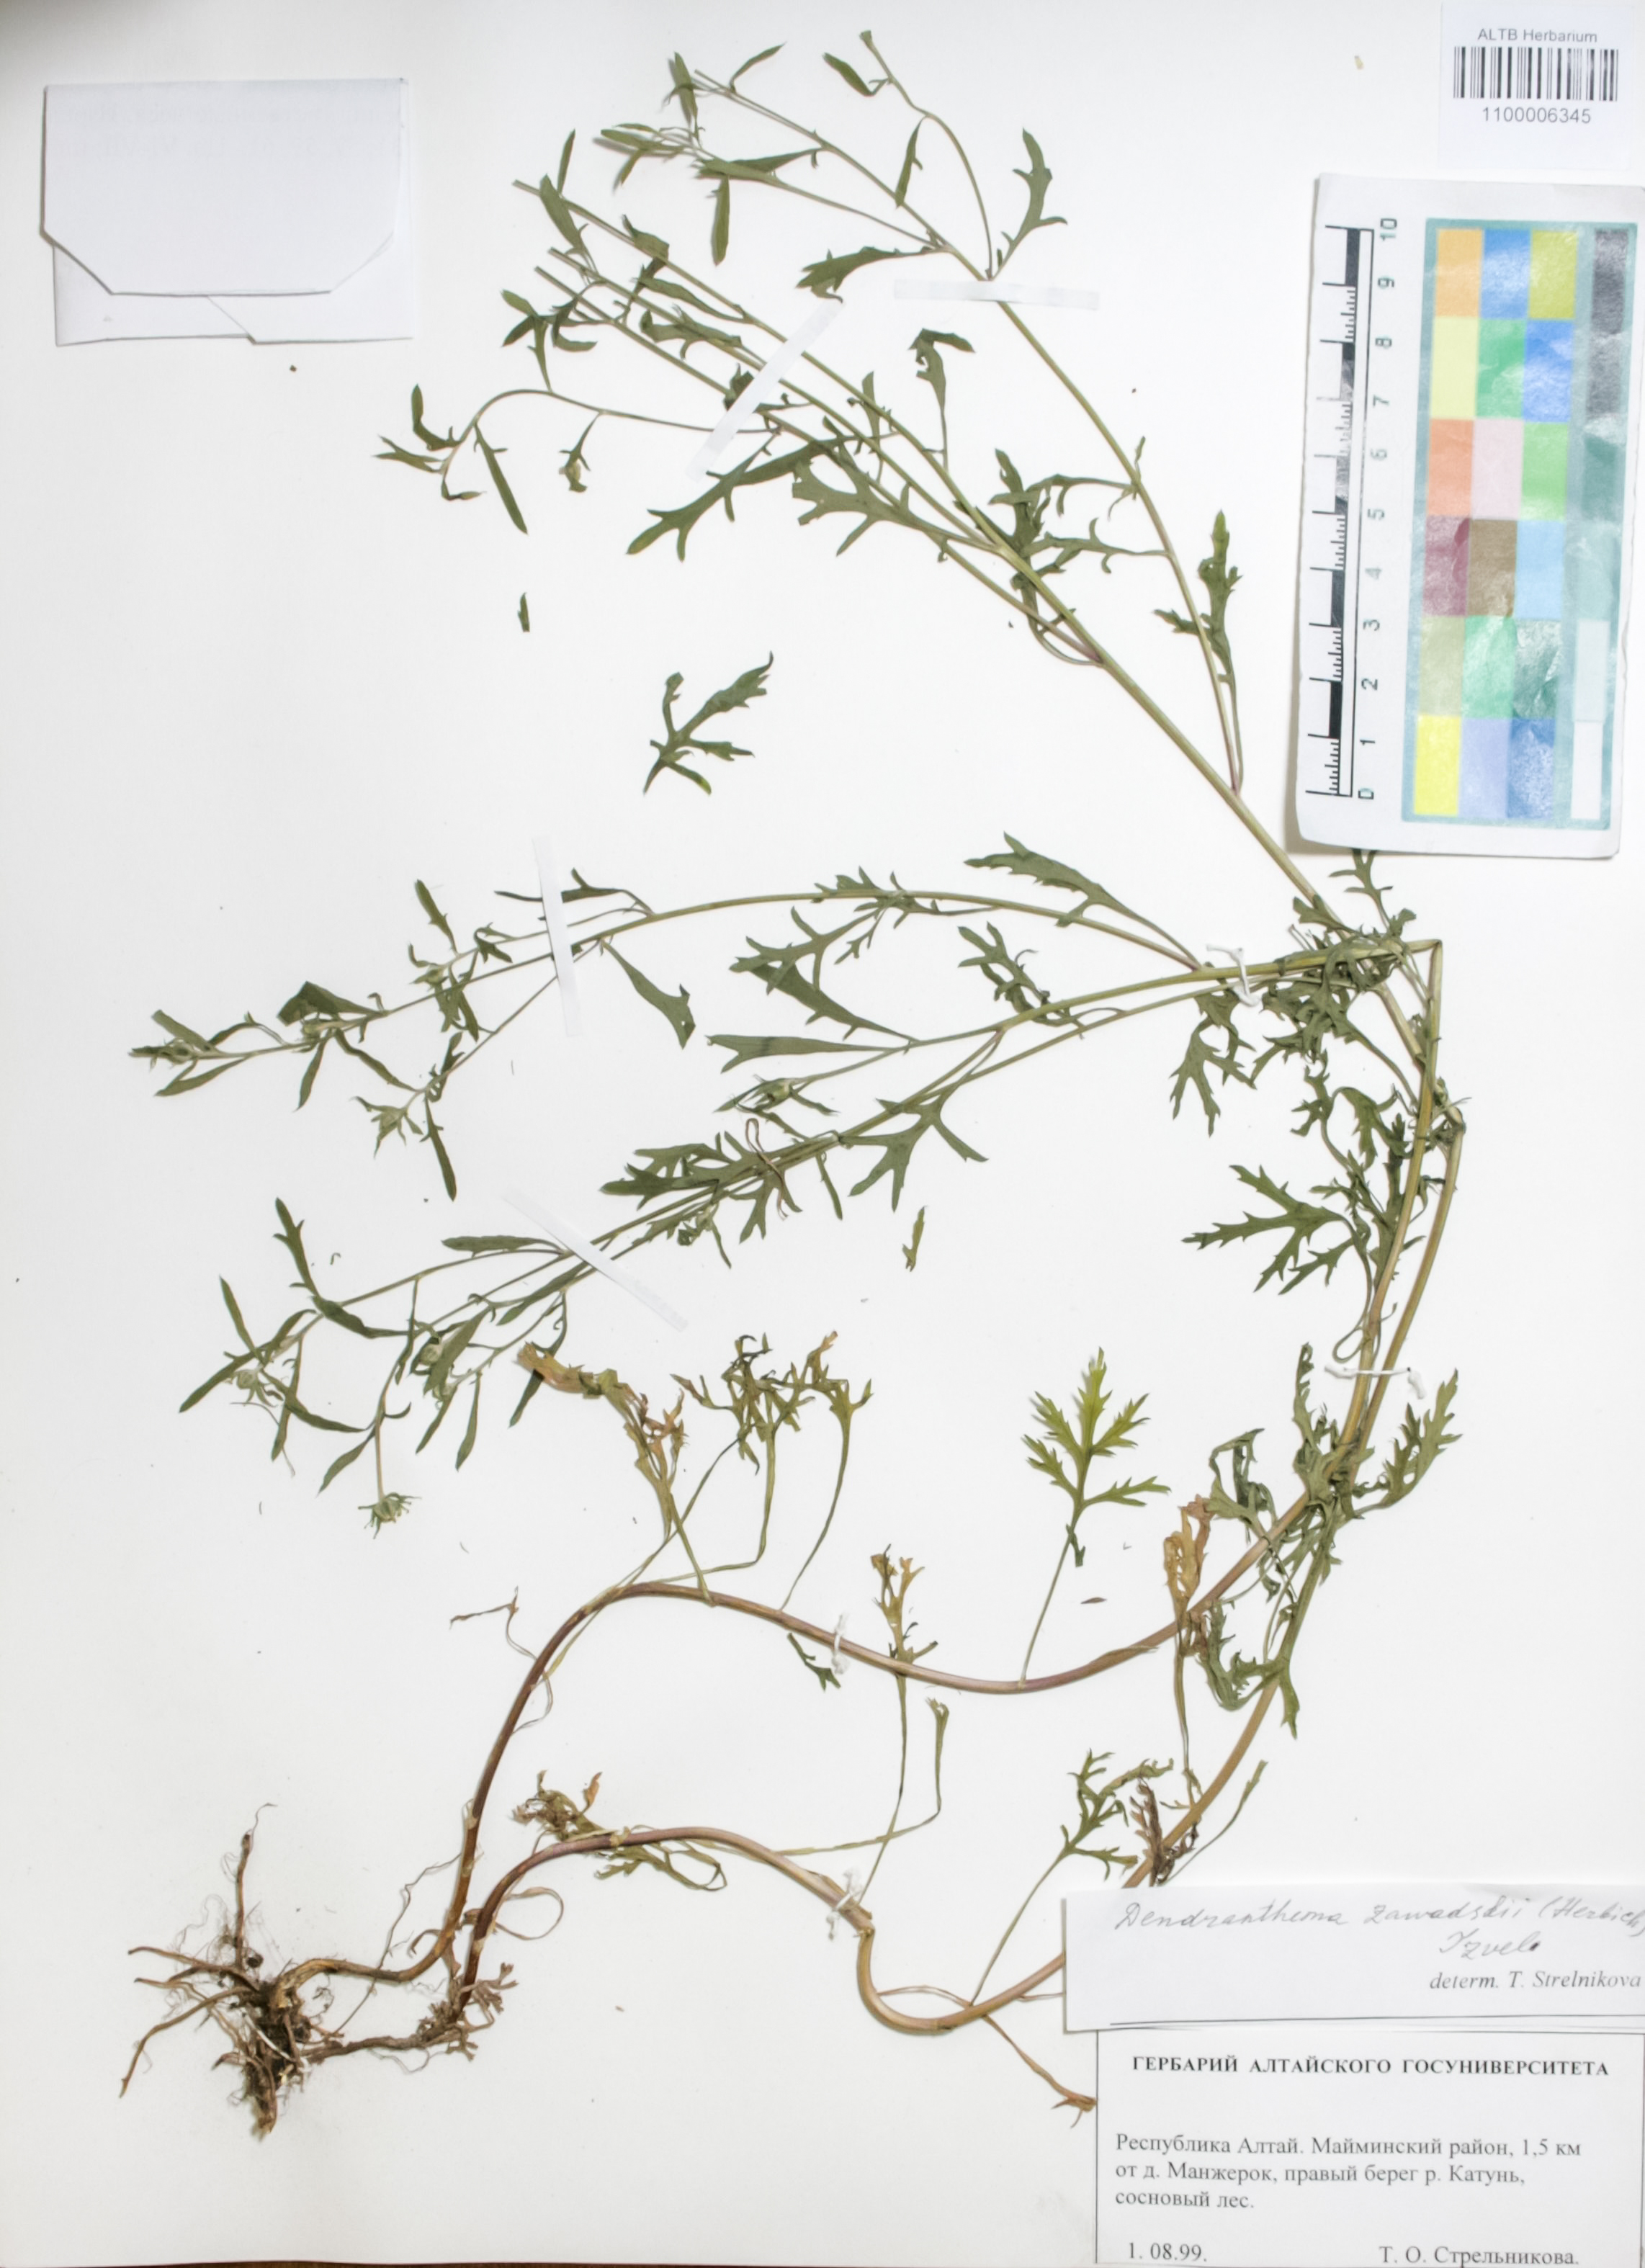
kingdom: Plantae
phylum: Tracheophyta
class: Magnoliopsida
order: Asterales
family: Asteraceae
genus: Chrysanthemum
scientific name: Chrysanthemum zawadzkii
